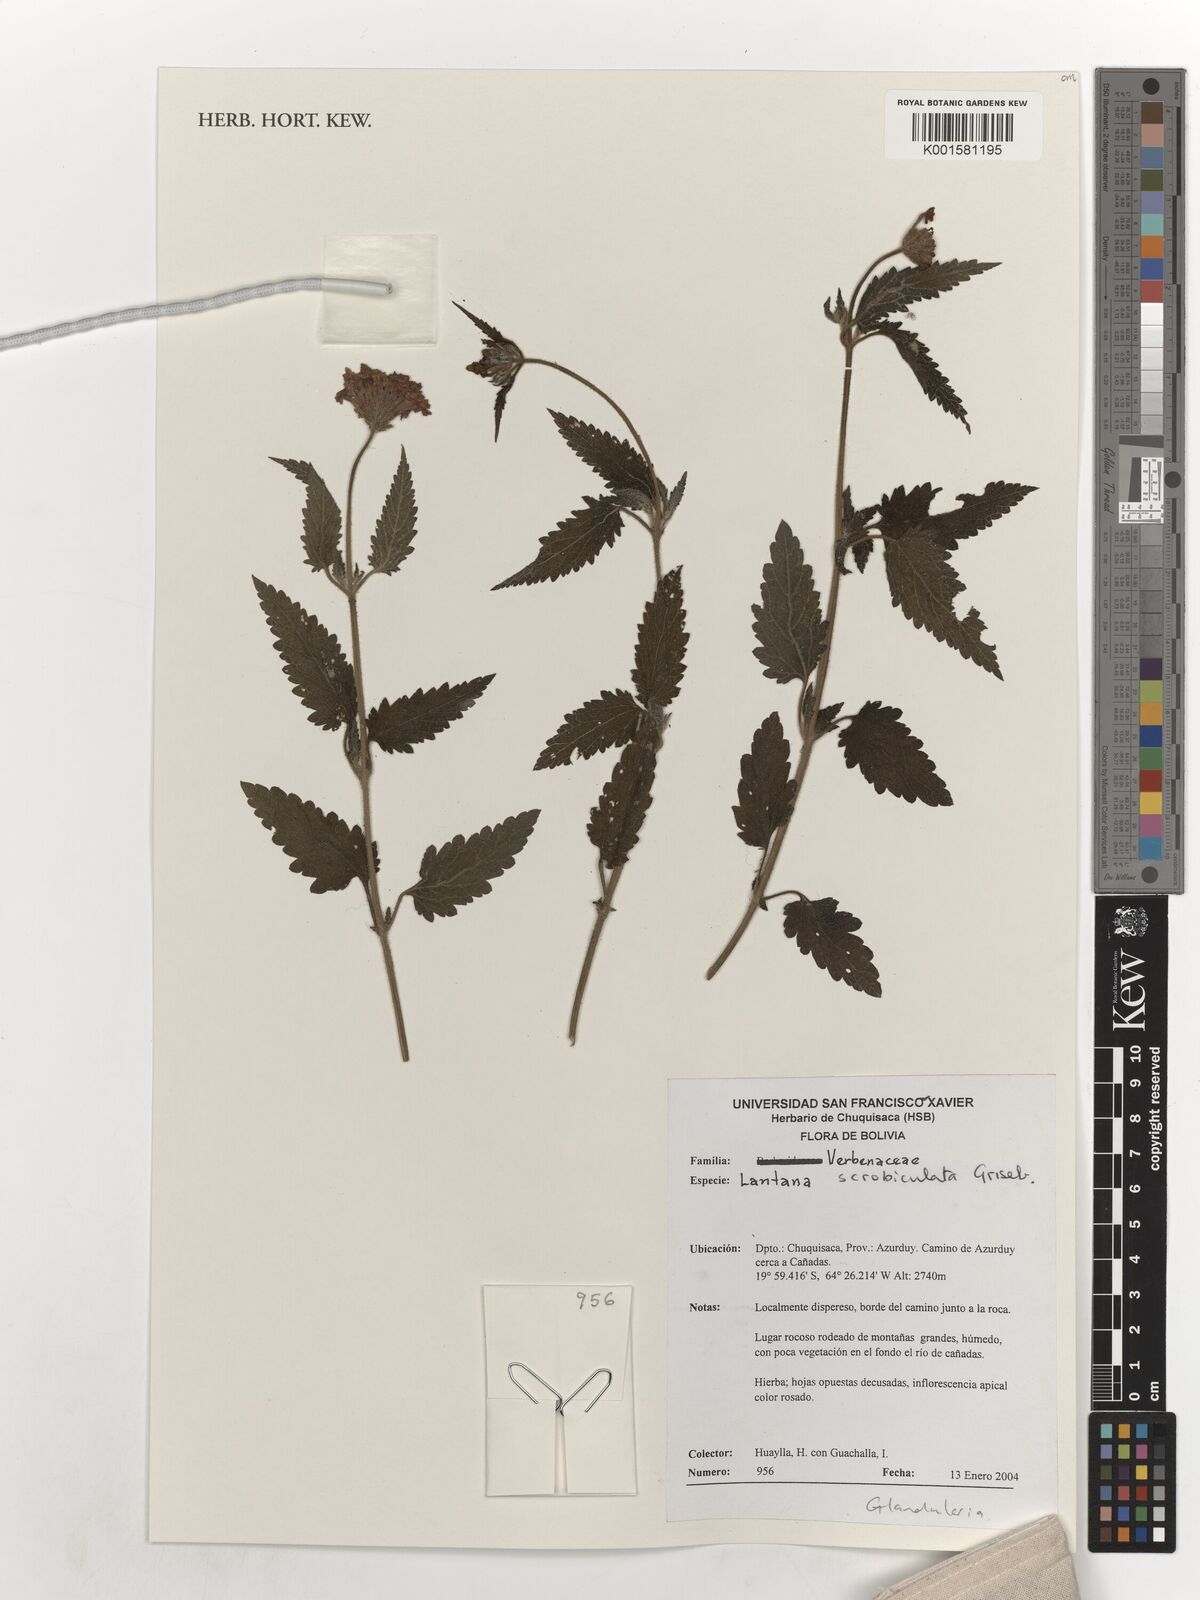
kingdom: Plantae
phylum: Tracheophyta
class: Magnoliopsida
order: Lamiales
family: Verbenaceae
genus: Lantana
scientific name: Lantana
